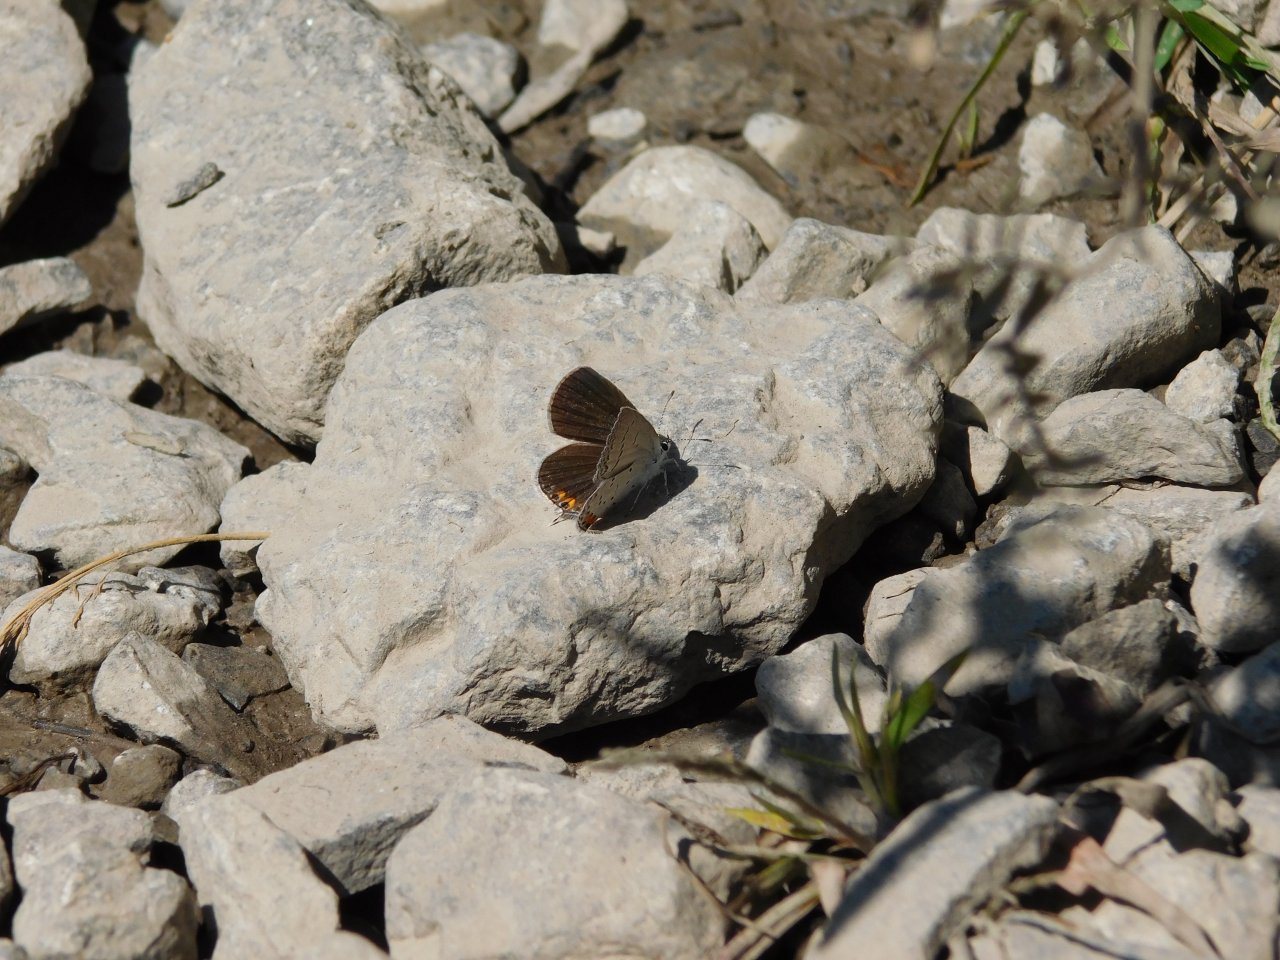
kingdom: Animalia
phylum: Arthropoda
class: Insecta
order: Lepidoptera
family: Lycaenidae
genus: Elkalyce
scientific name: Elkalyce comyntas
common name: Eastern Tailed-Blue
